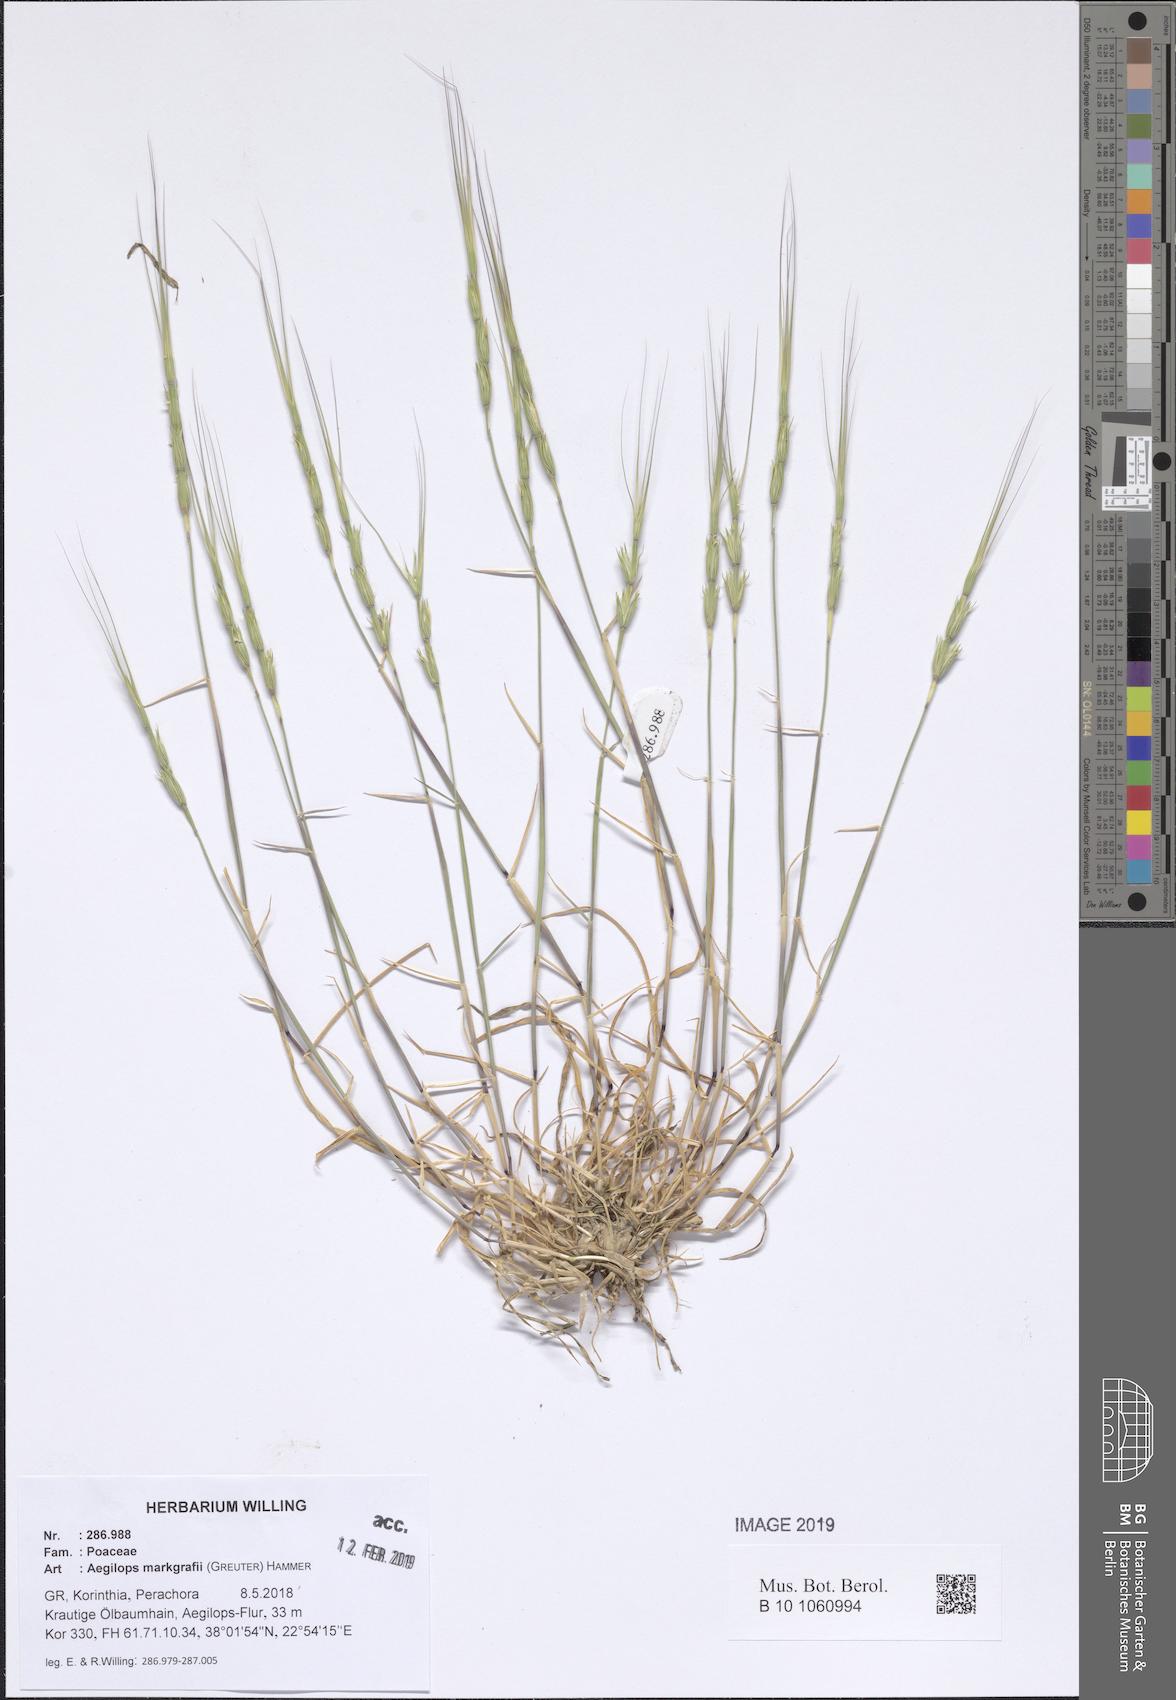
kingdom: Plantae
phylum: Tracheophyta
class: Liliopsida
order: Poales
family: Poaceae
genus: Aegilops
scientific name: Aegilops caudata
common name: Cretan hard-grass
